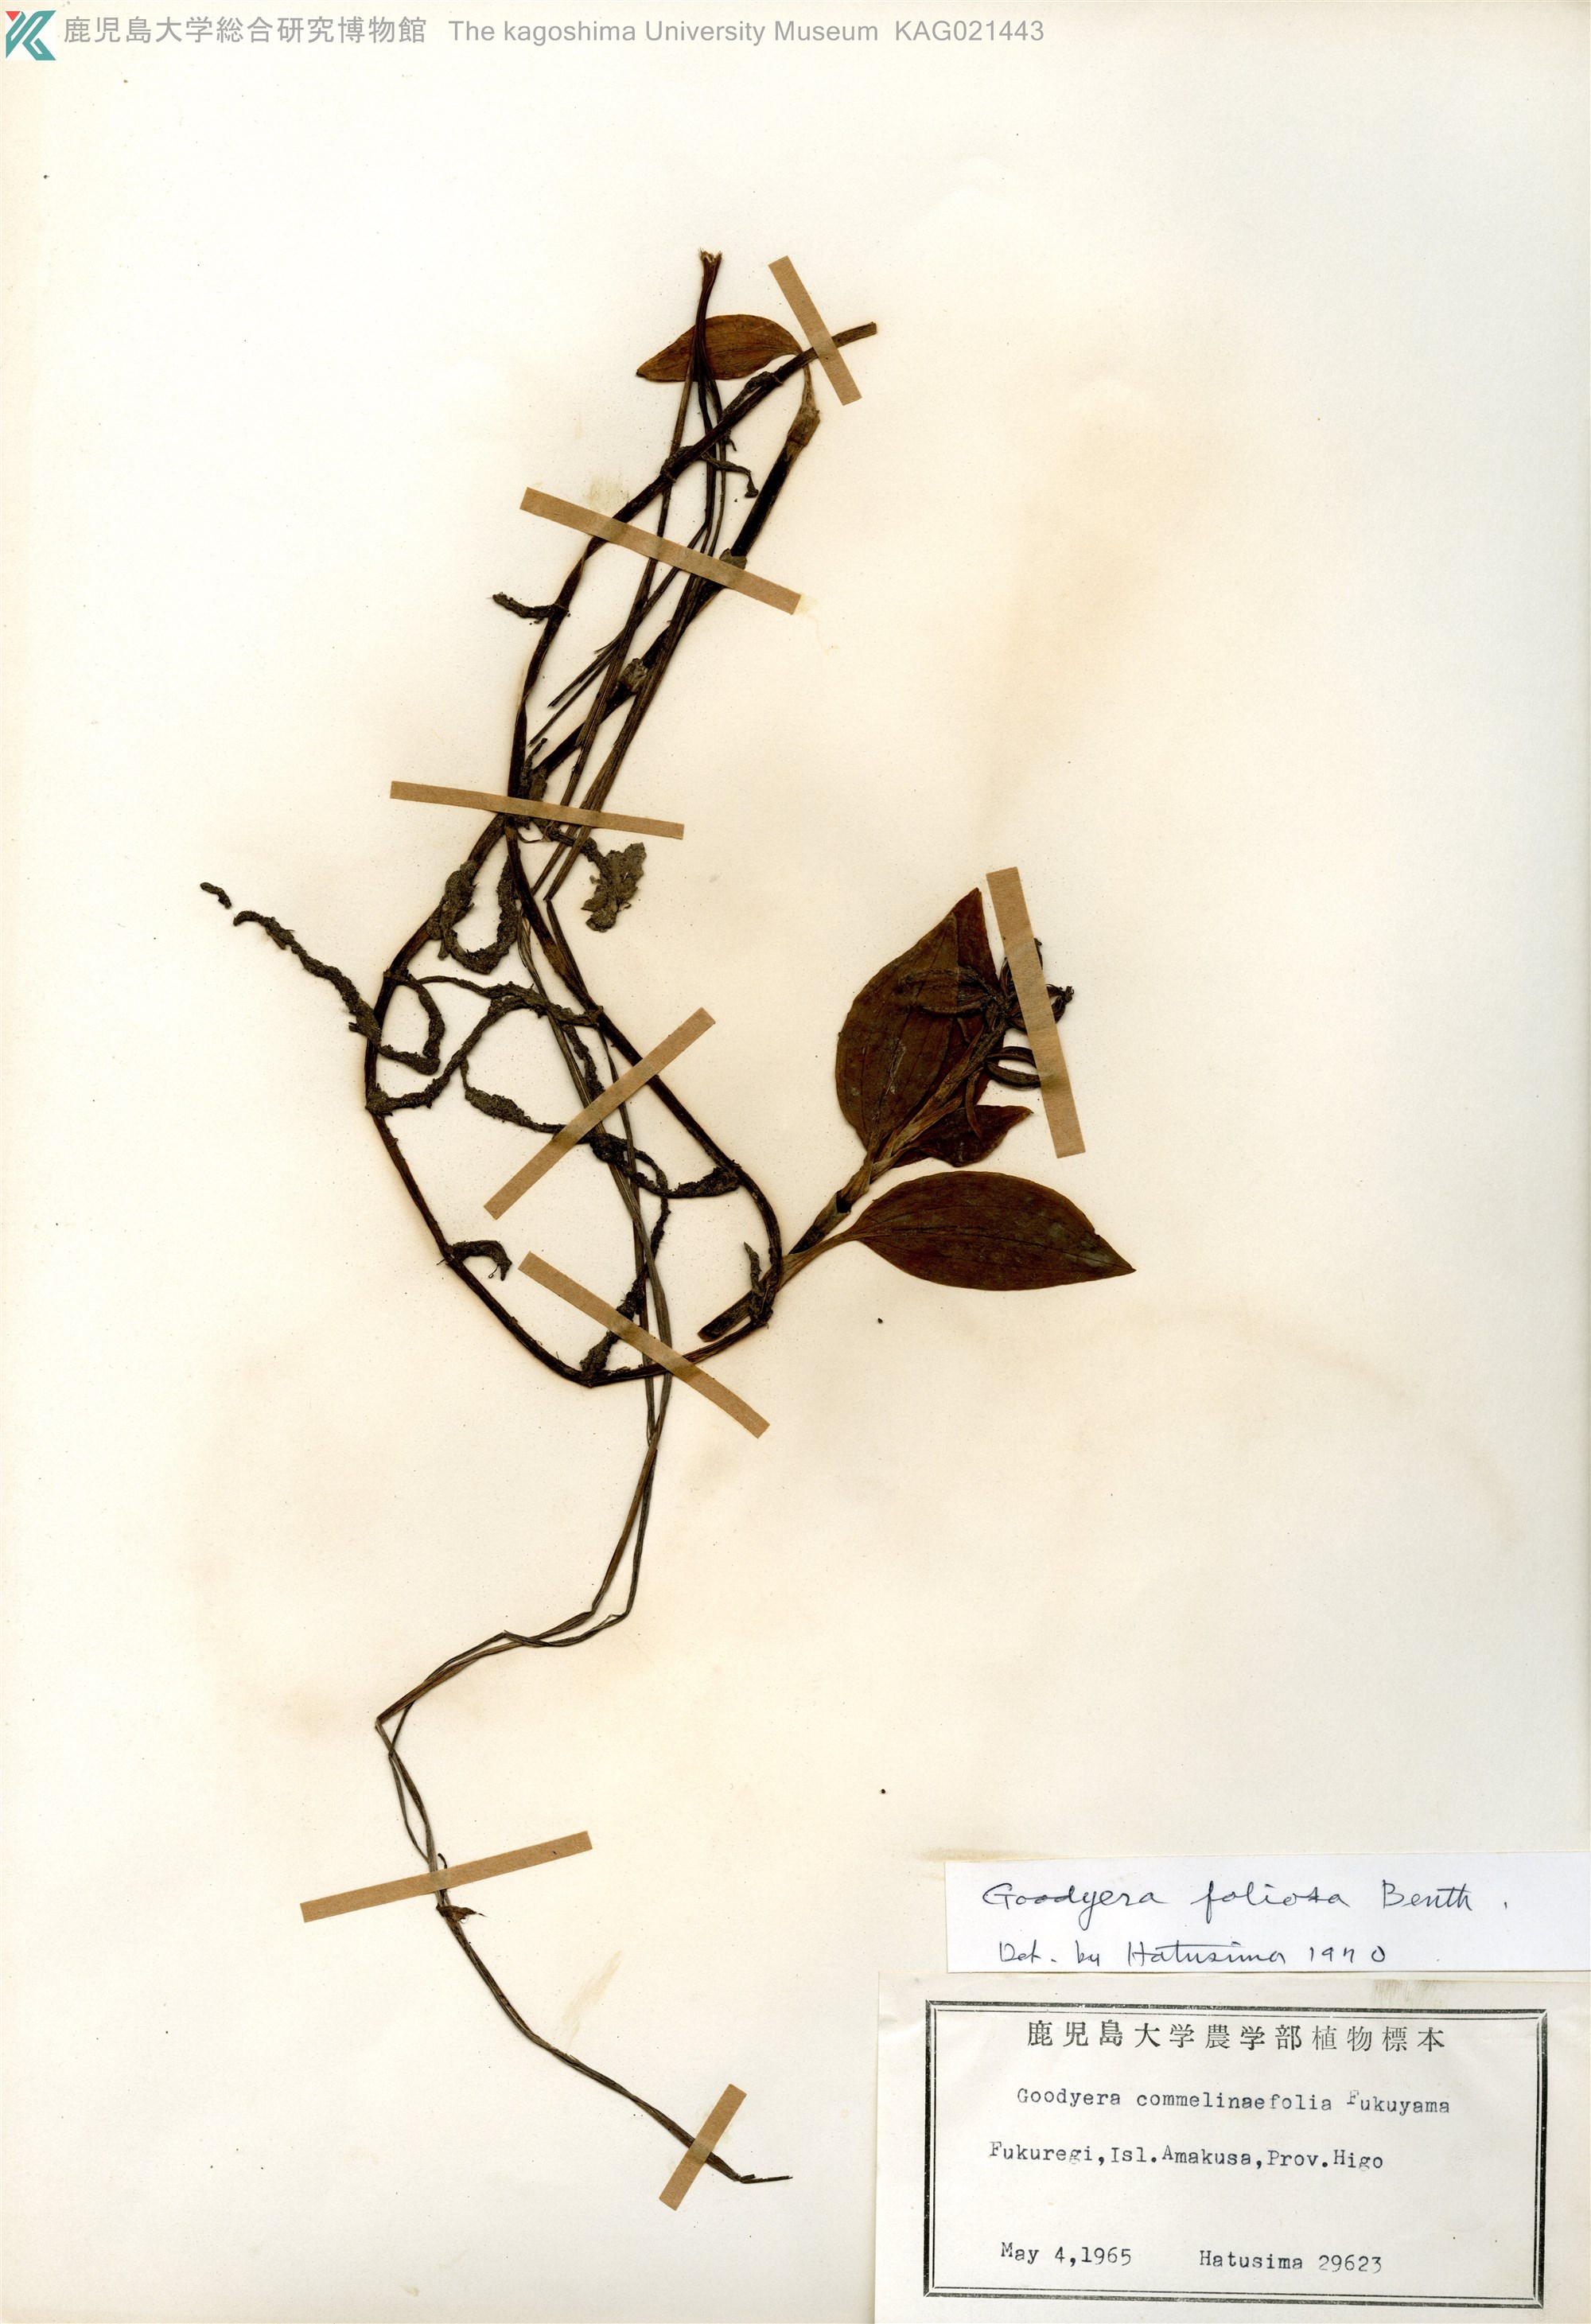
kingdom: Plantae
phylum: Tracheophyta
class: Liliopsida
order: Asparagales
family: Orchidaceae
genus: Goodyera
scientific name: Goodyera foliosa
